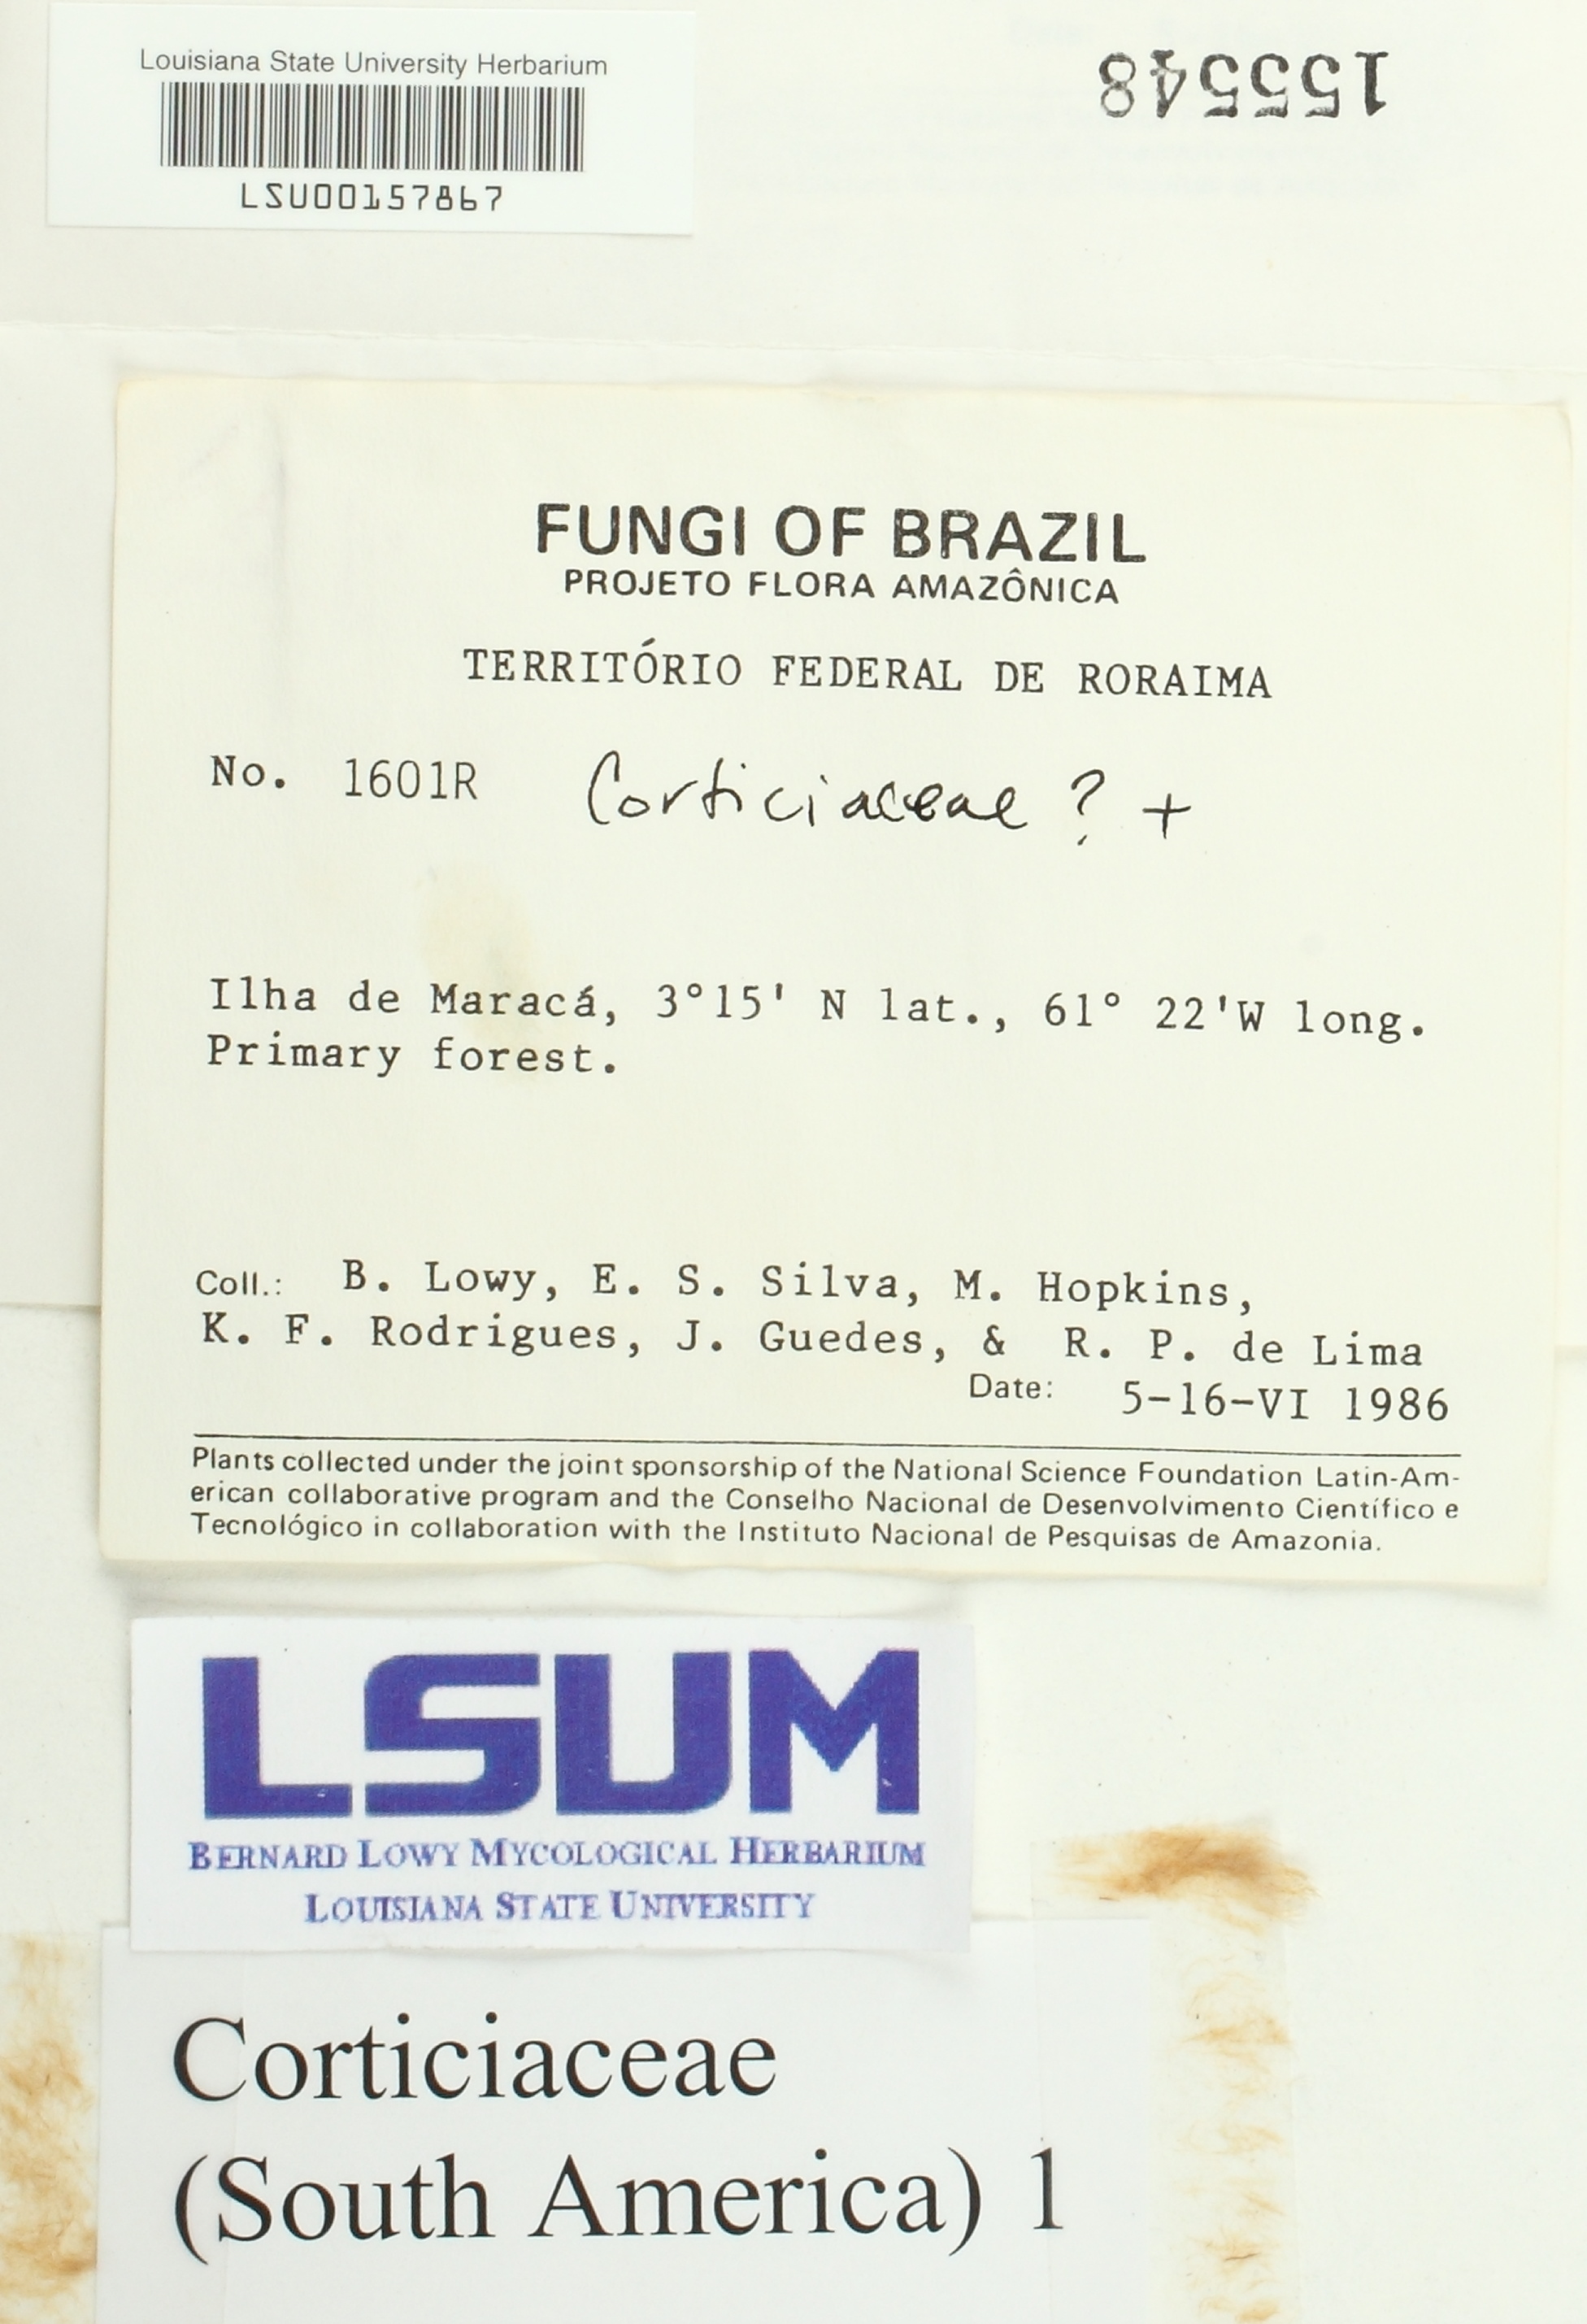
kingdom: Fungi
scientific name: Fungi
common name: Fungi
